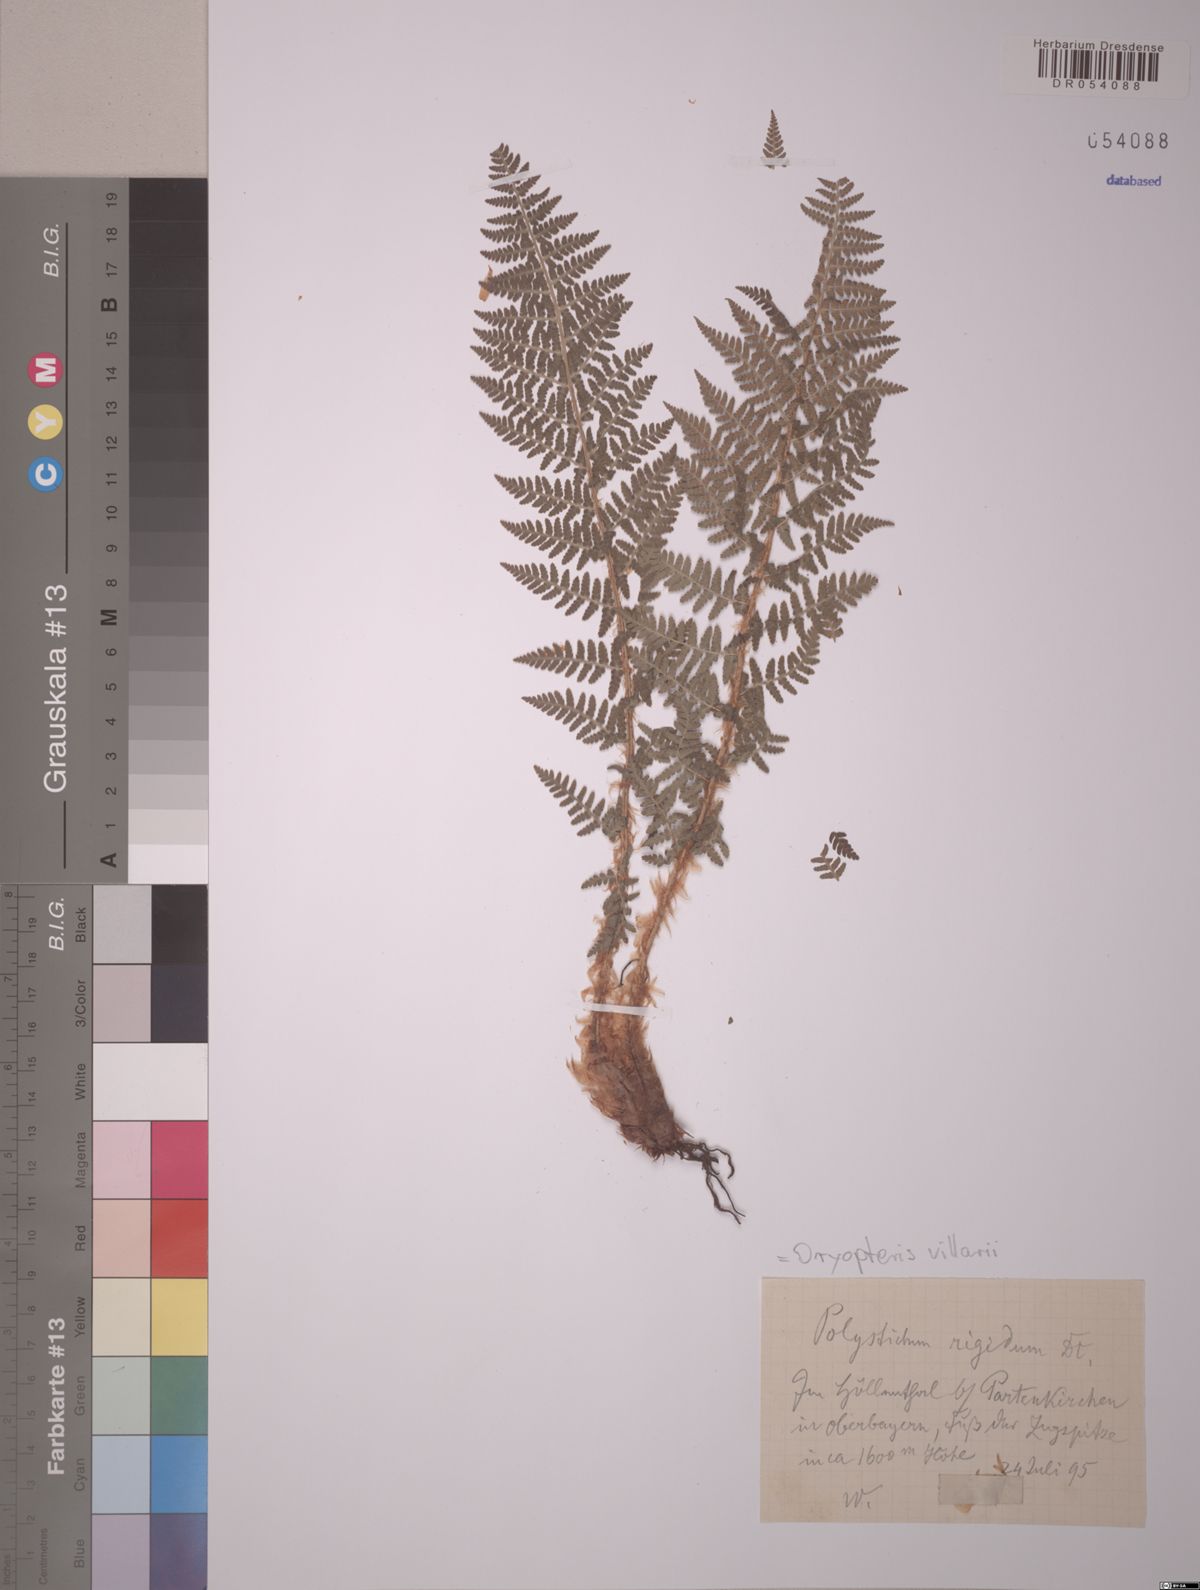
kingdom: Plantae
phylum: Tracheophyta
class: Polypodiopsida
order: Polypodiales
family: Dryopteridaceae
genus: Dryopteris
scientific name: Dryopteris villarii
